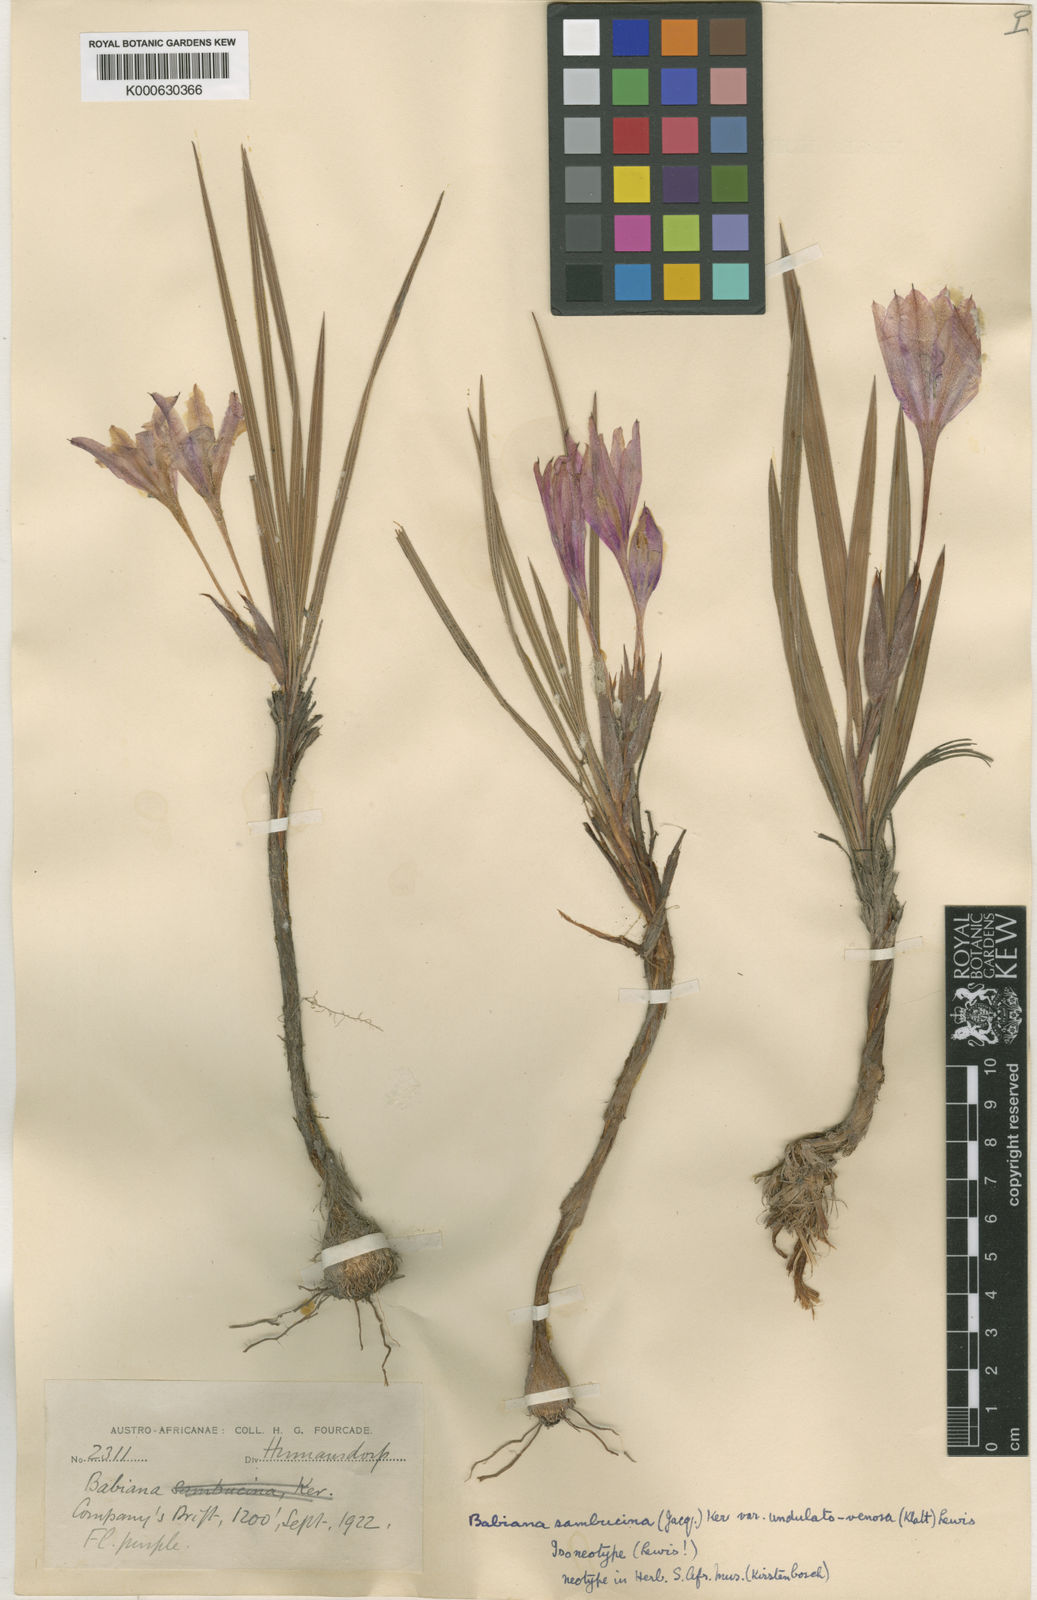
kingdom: Plantae
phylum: Tracheophyta
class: Liliopsida
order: Asparagales
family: Iridaceae
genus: Babiana
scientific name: Babiana sambucina
